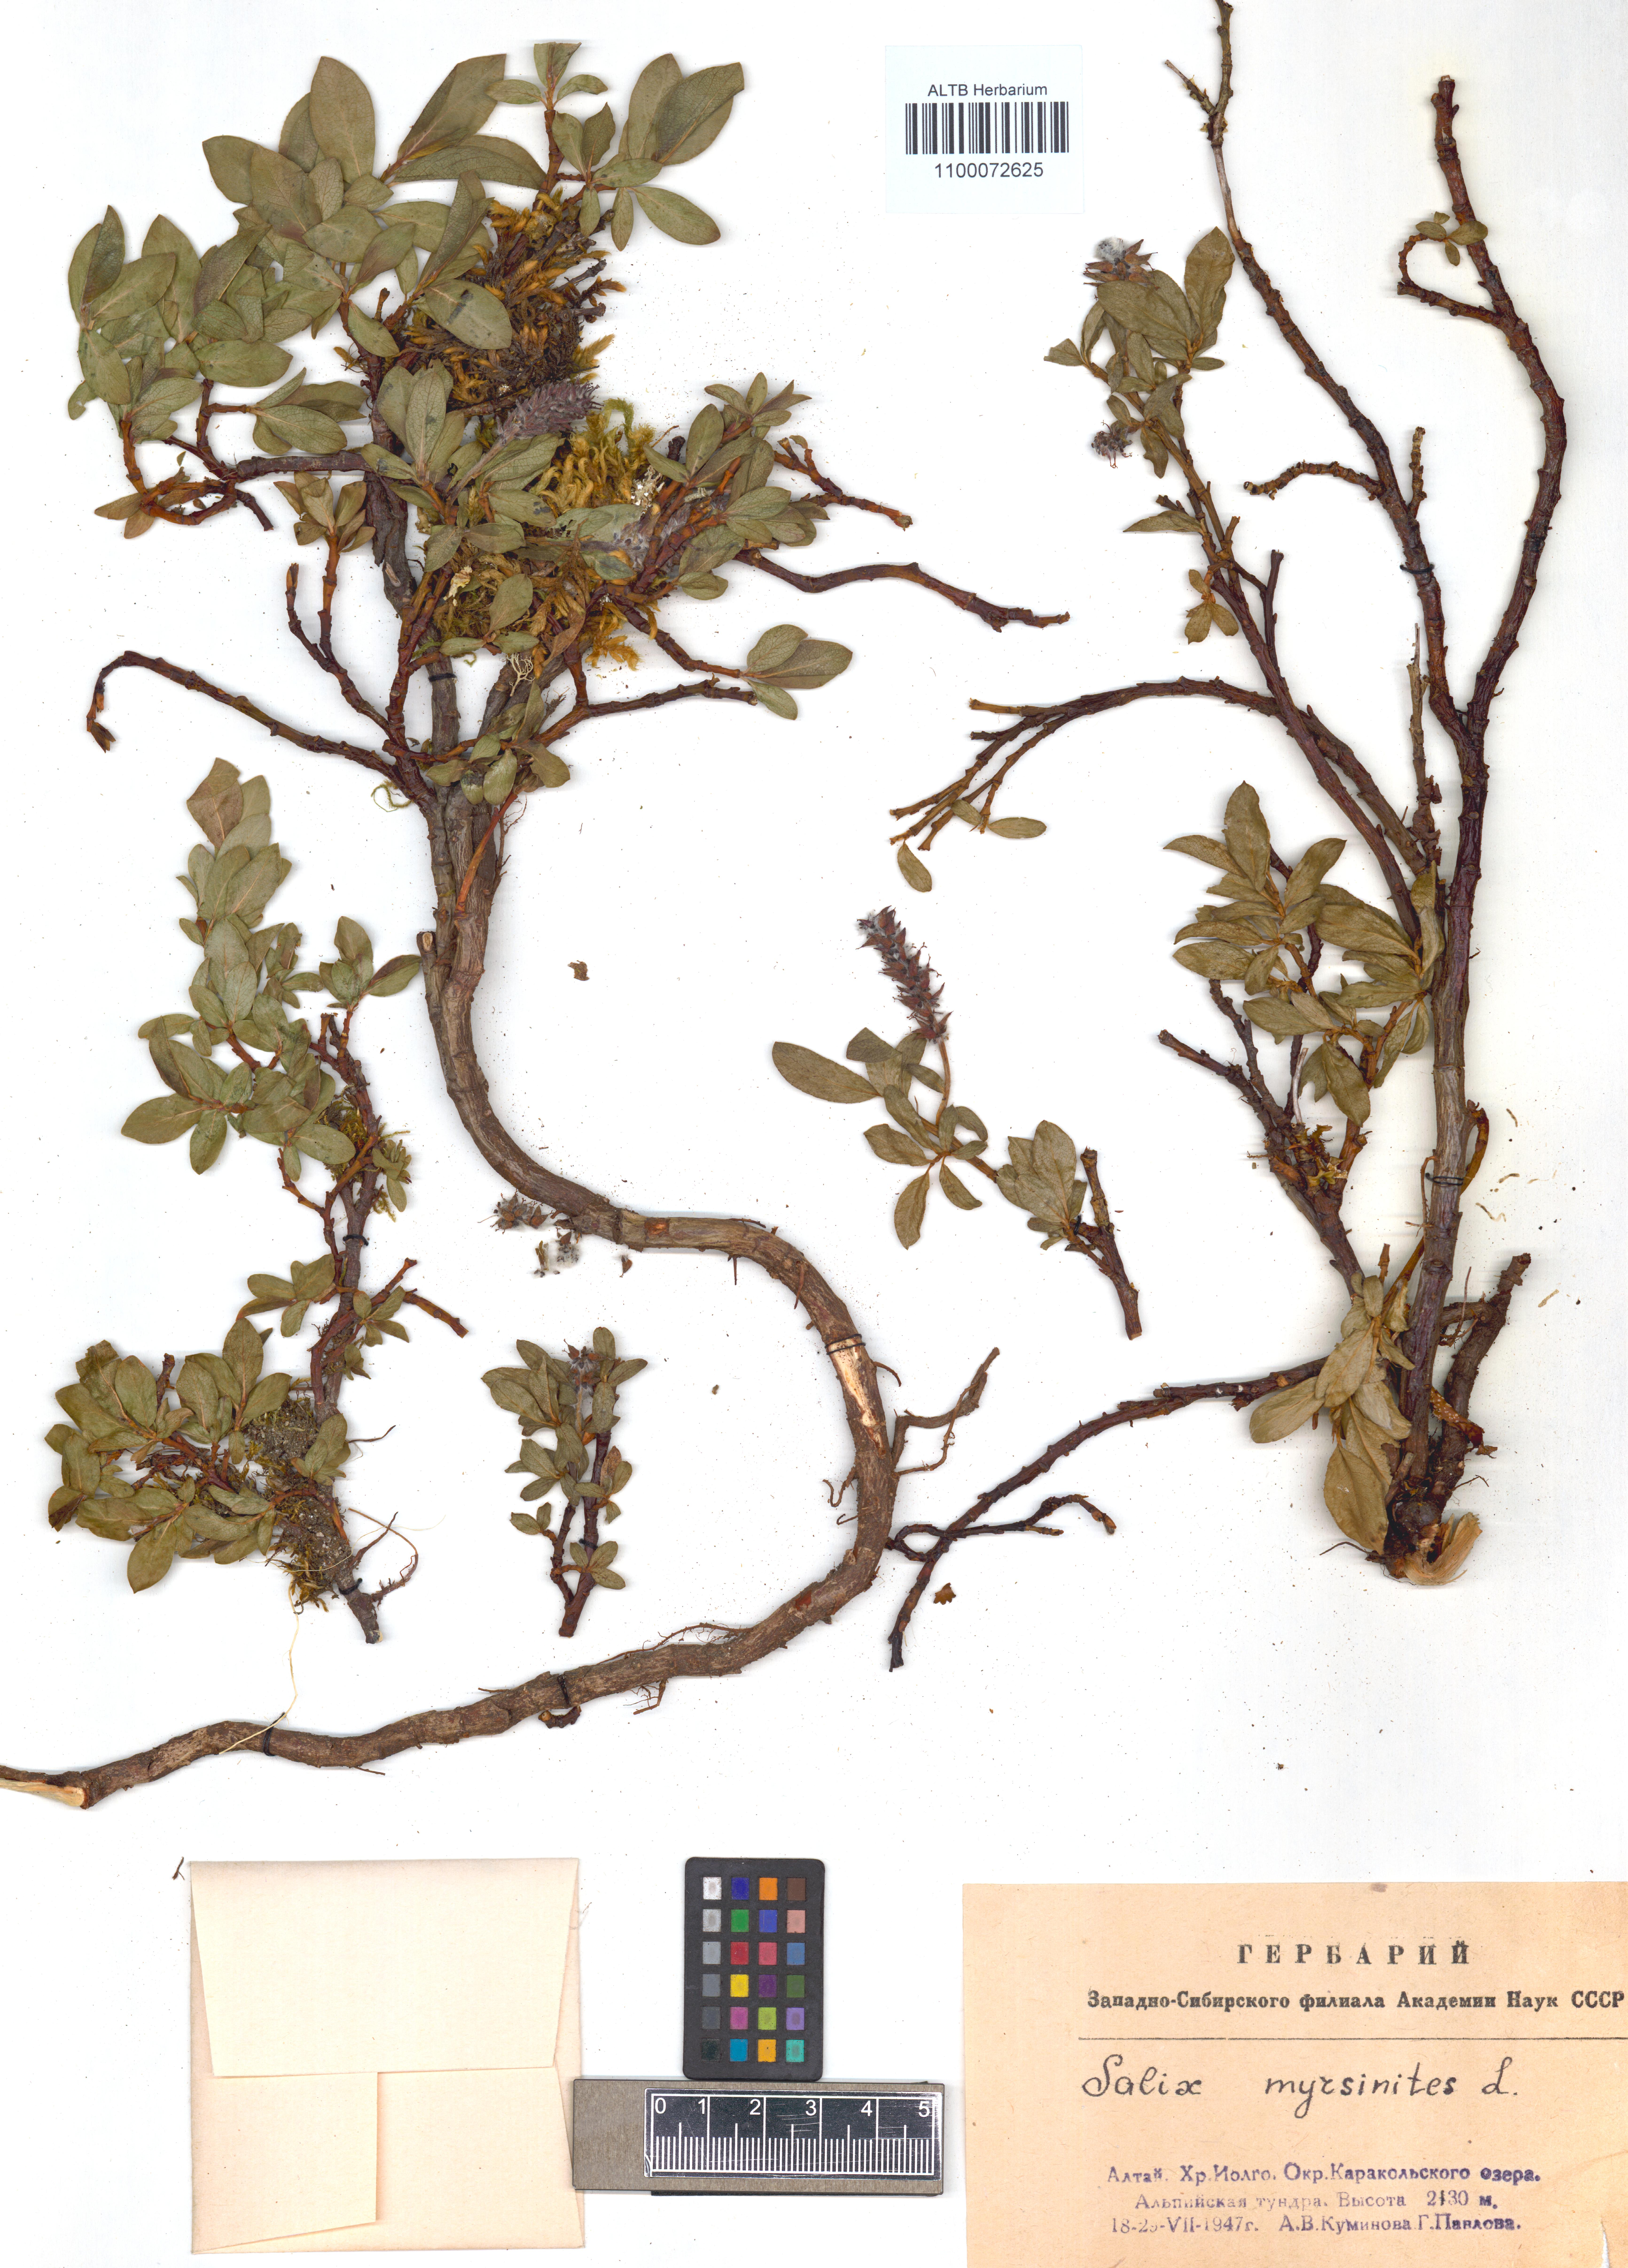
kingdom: Plantae
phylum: Tracheophyta
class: Magnoliopsida
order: Malpighiales
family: Salicaceae
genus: Salix
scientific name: Salix myrsinites
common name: Myrtle willow
